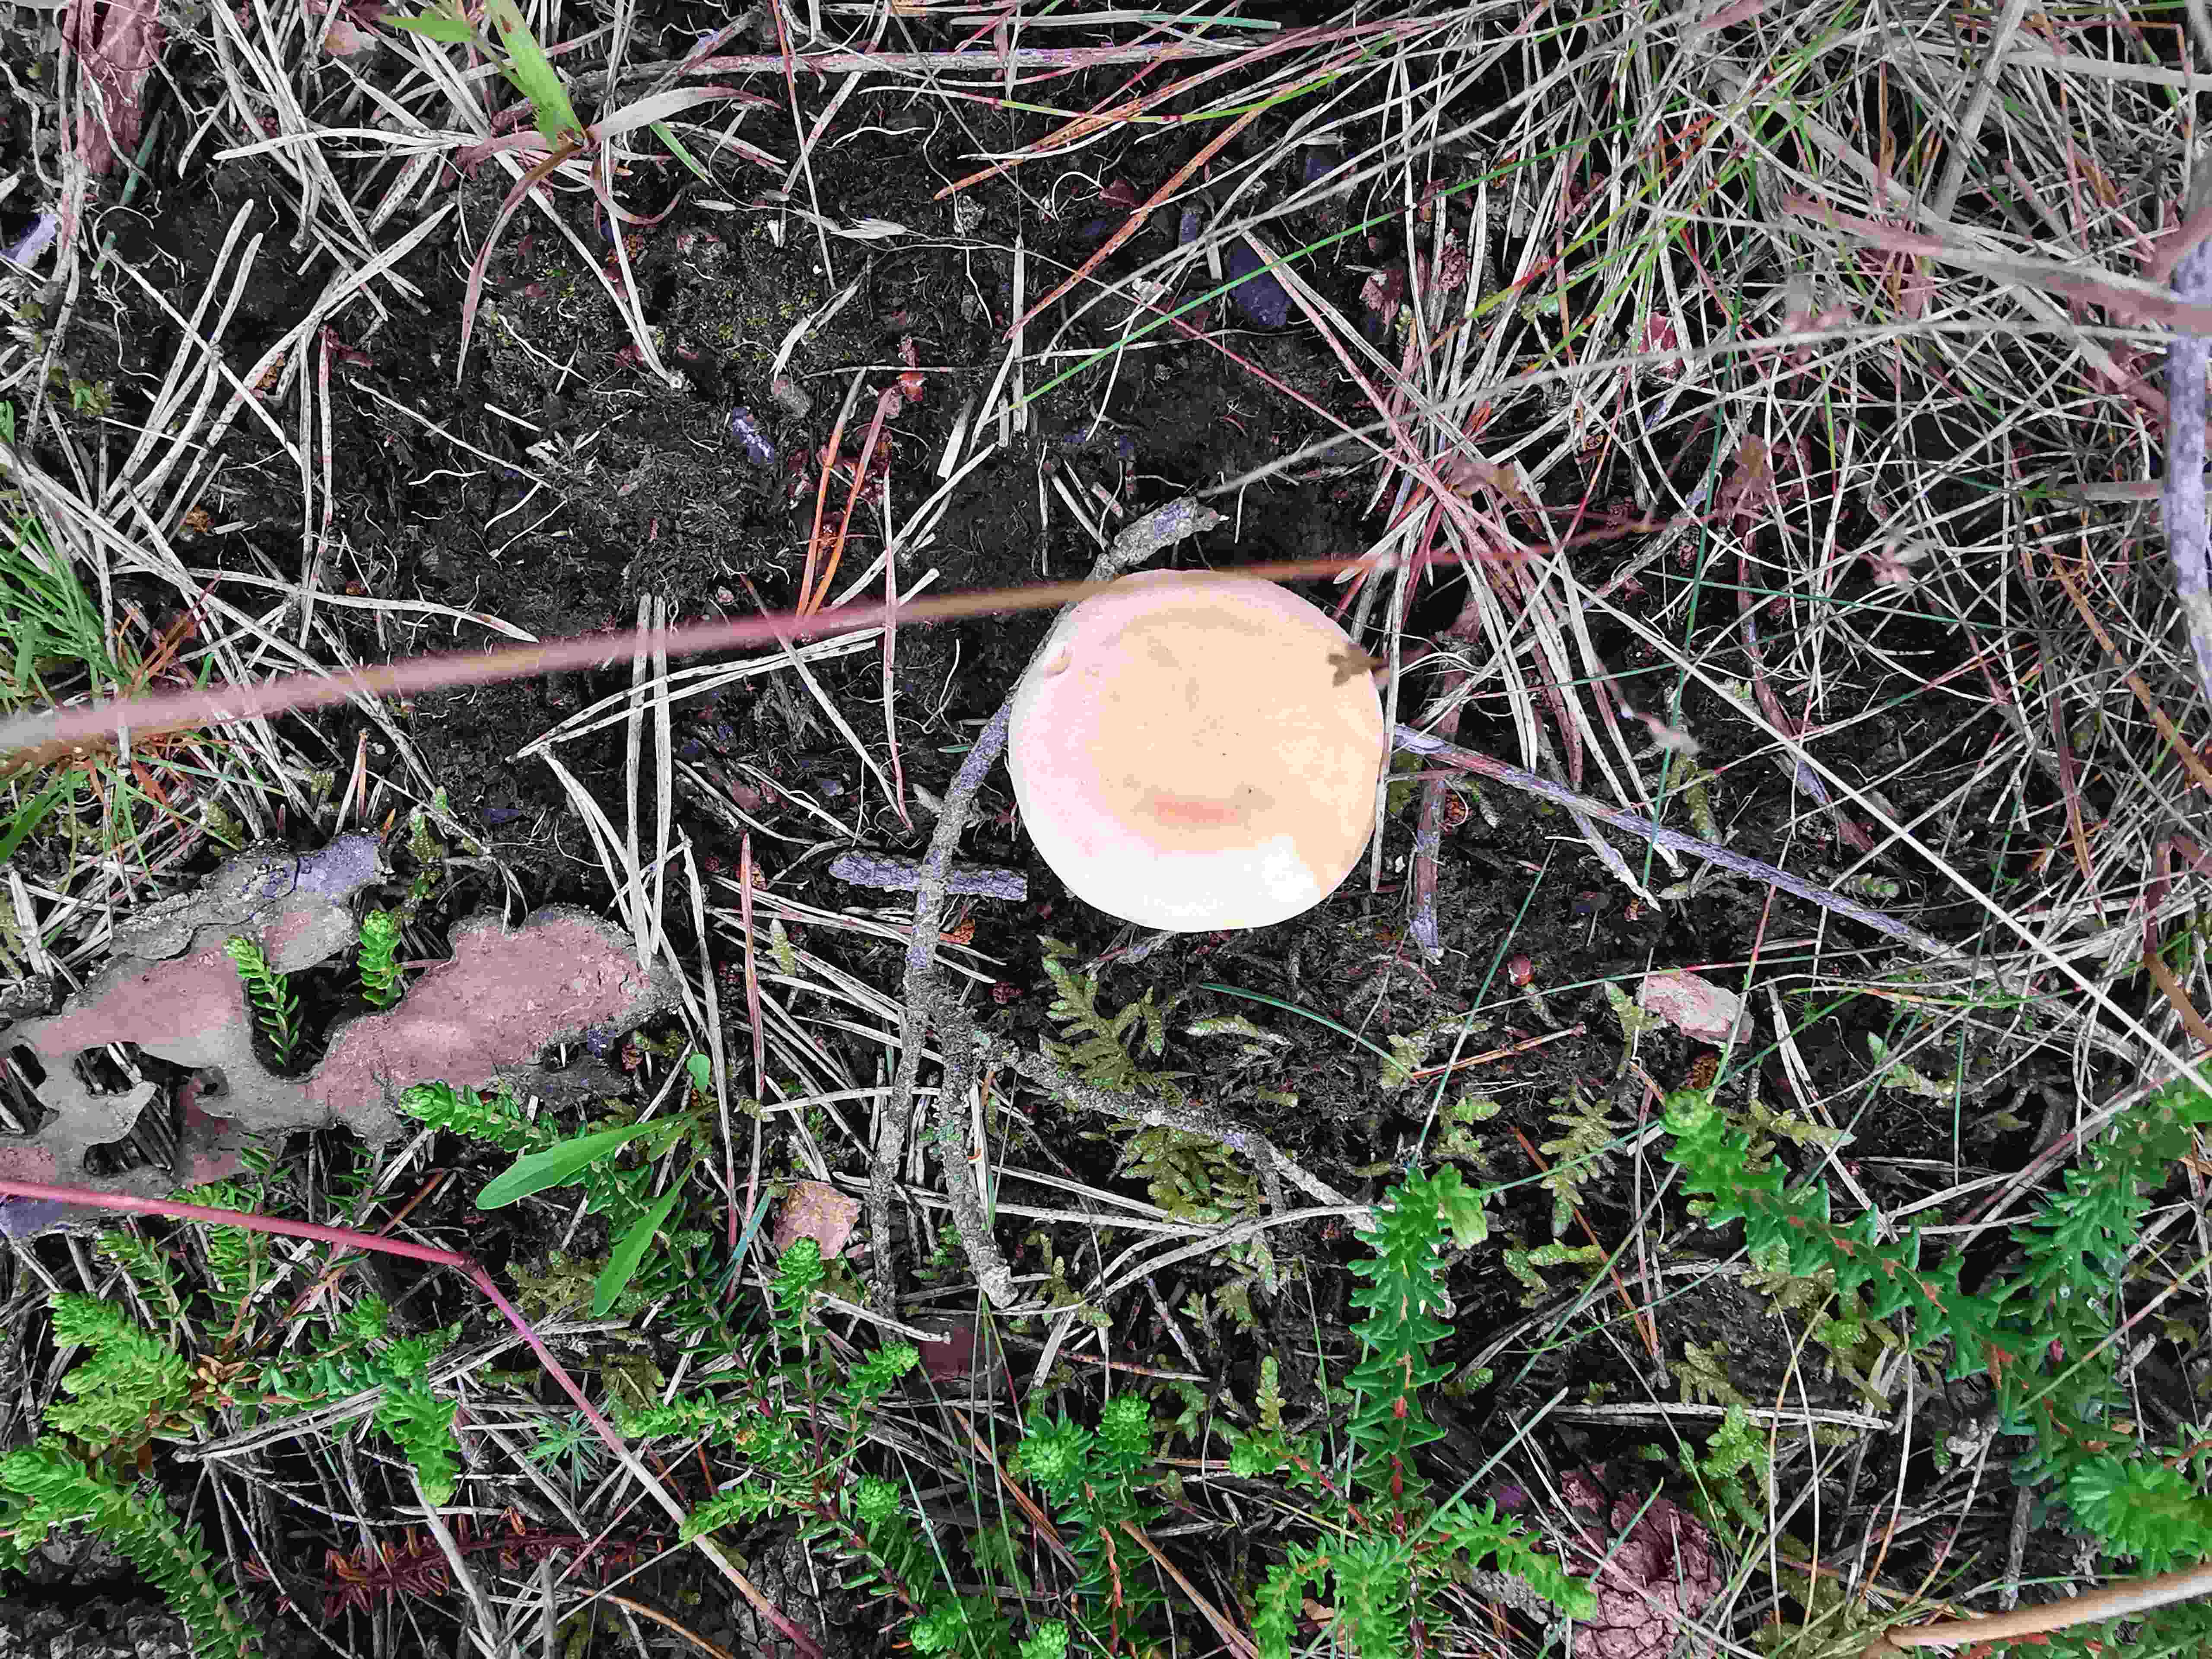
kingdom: Fungi
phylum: Basidiomycota
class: Agaricomycetes
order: Boletales
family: Hygrophoropsidaceae
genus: Hygrophoropsis
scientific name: Hygrophoropsis aurantiaca
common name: almindelig orangekantarel
